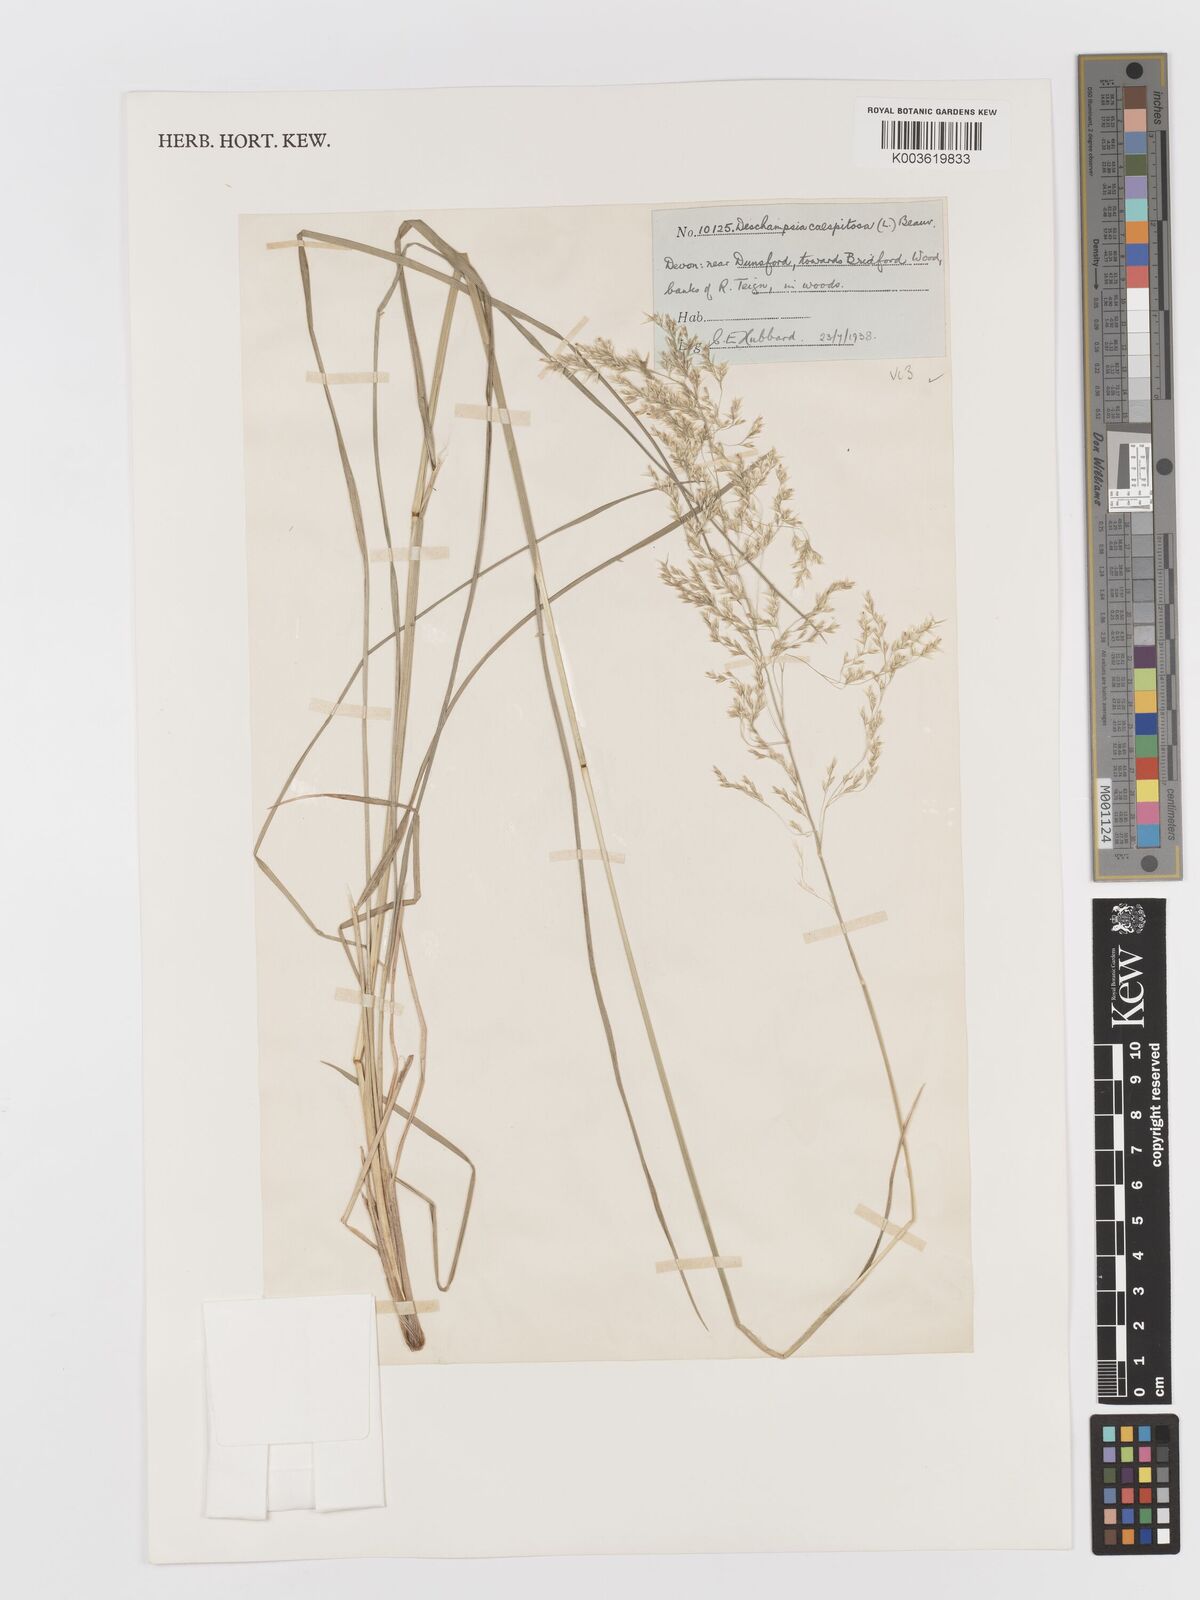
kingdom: Plantae
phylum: Tracheophyta
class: Liliopsida
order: Poales
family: Poaceae
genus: Deschampsia
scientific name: Deschampsia cespitosa
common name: Tufted hair-grass
